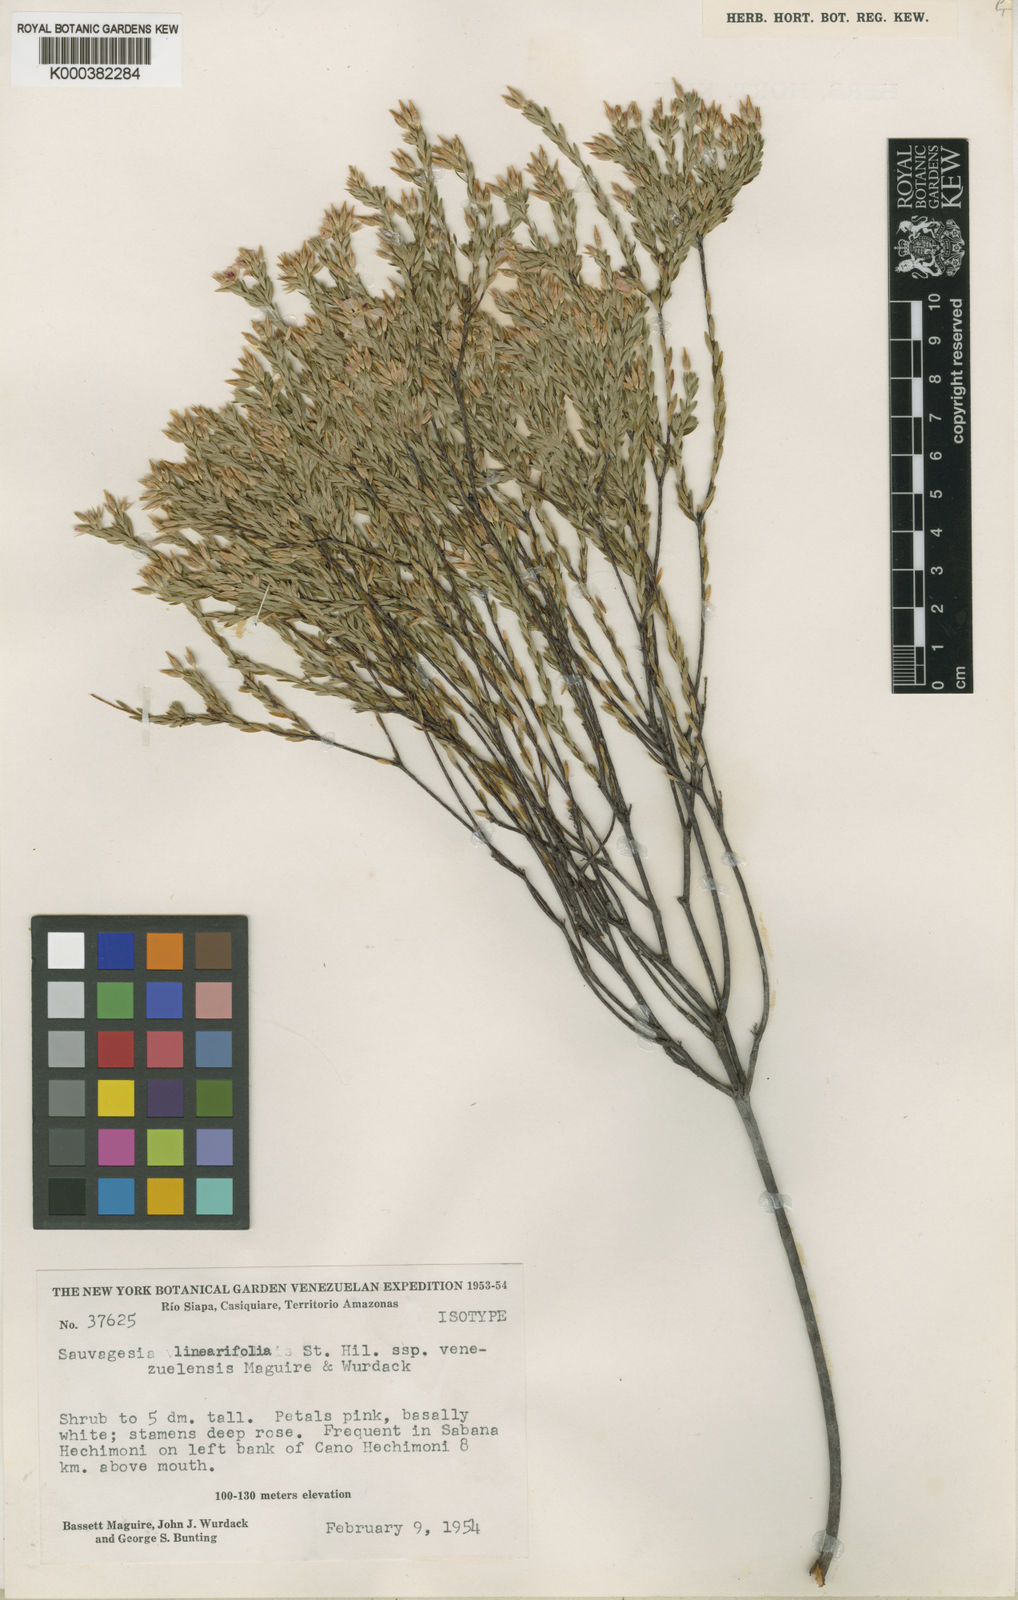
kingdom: Plantae
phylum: Tracheophyta
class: Magnoliopsida
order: Malpighiales
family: Ochnaceae
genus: Sauvagesia
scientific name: Sauvagesia linearifolia
